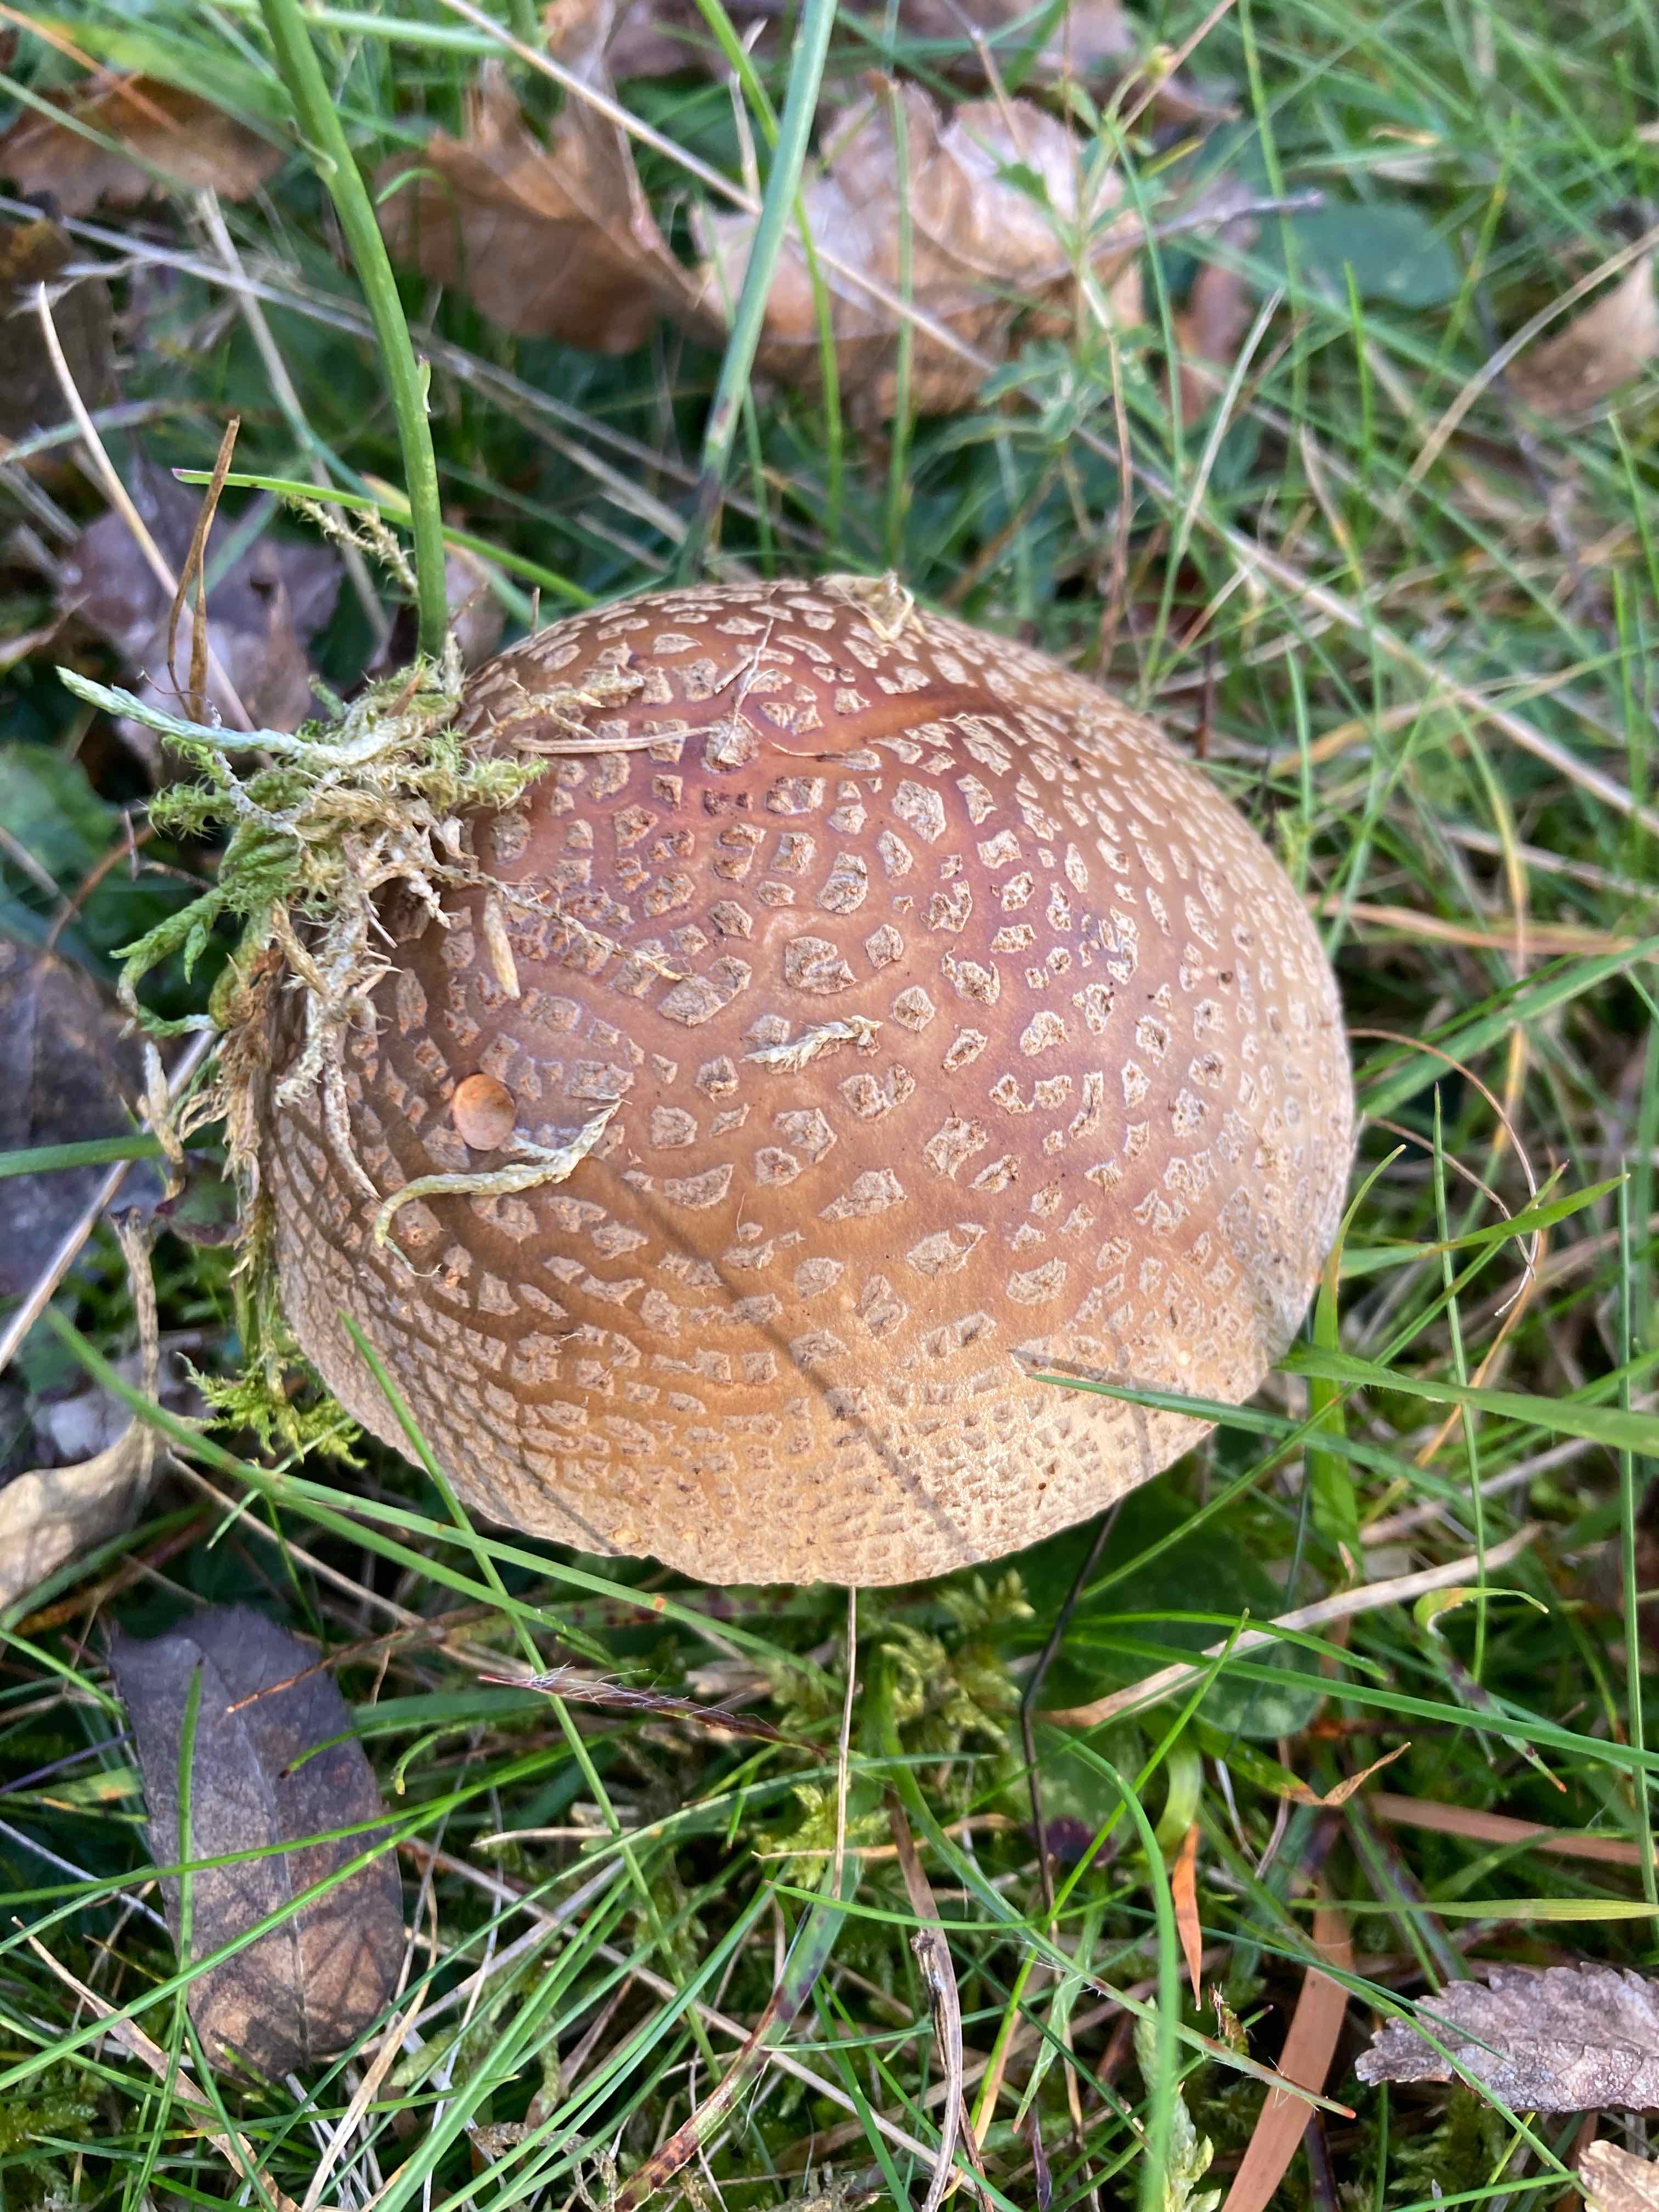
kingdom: Fungi
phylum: Basidiomycota
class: Agaricomycetes
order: Agaricales
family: Amanitaceae
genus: Amanita
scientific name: Amanita rubescens
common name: rødmende fluesvamp
